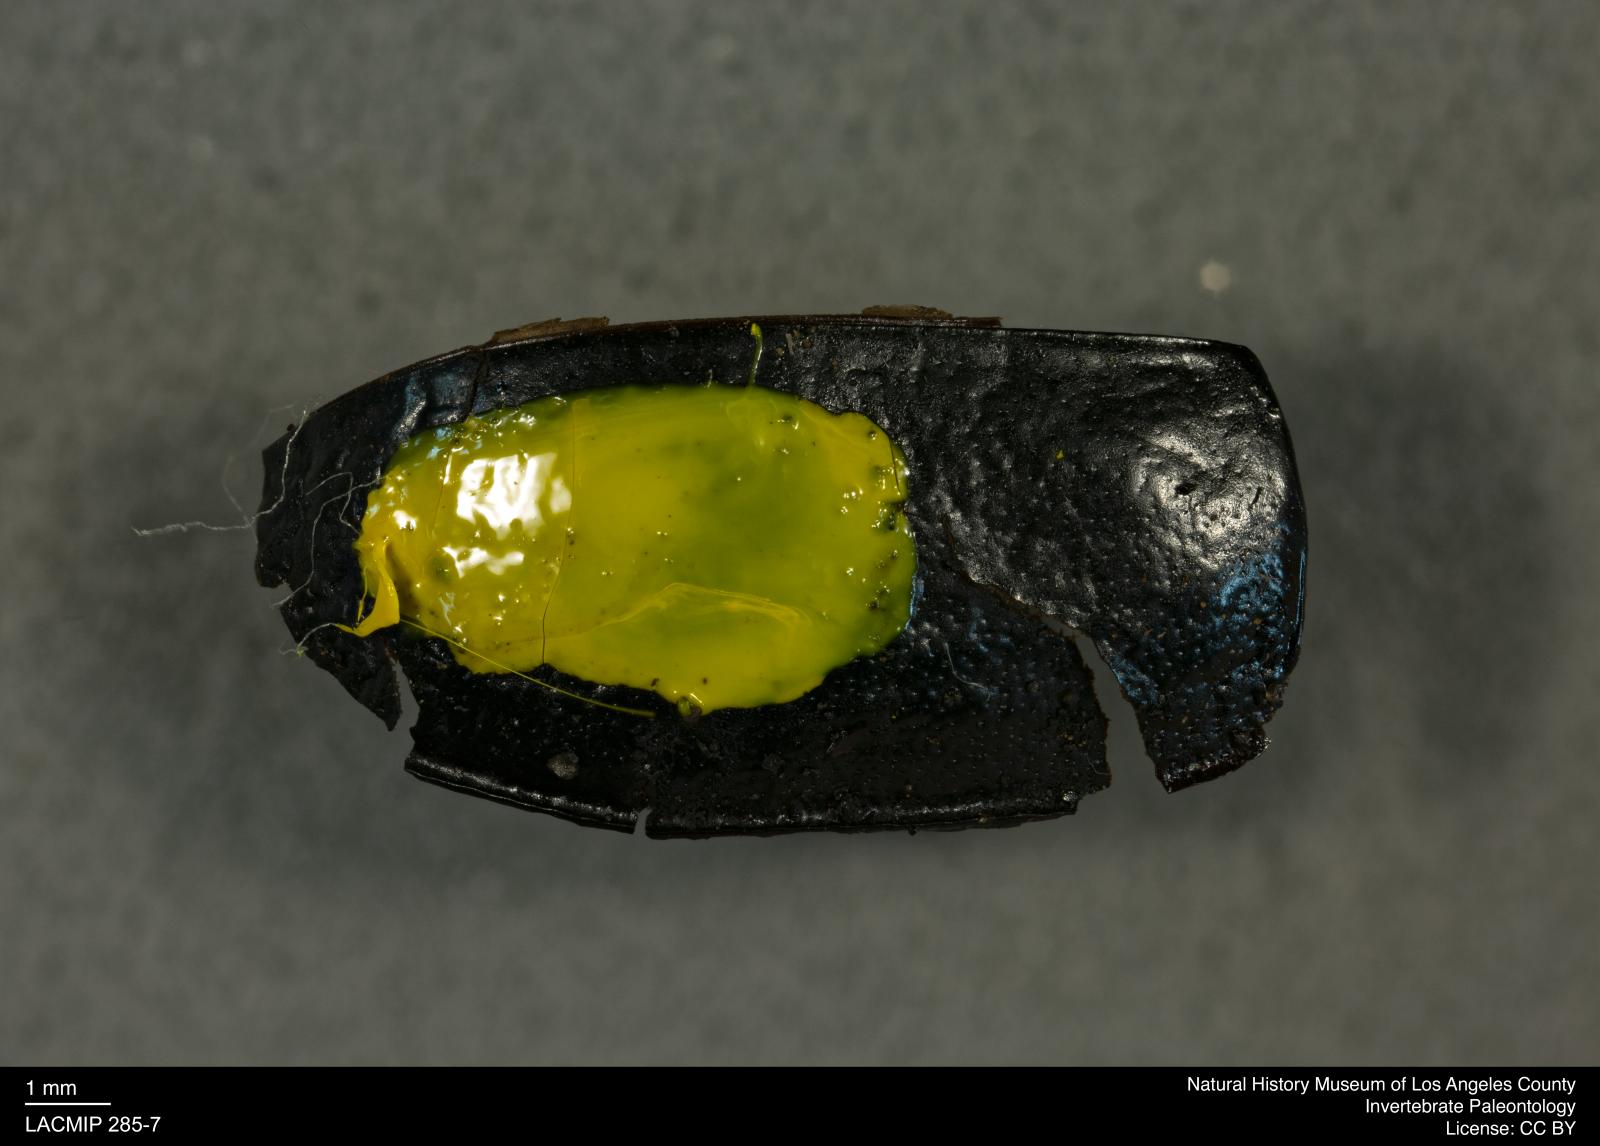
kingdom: Animalia
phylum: Arthropoda
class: Insecta
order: Coleoptera
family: Tenebrionidae
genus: Coniontis
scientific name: Coniontis abdominalis
